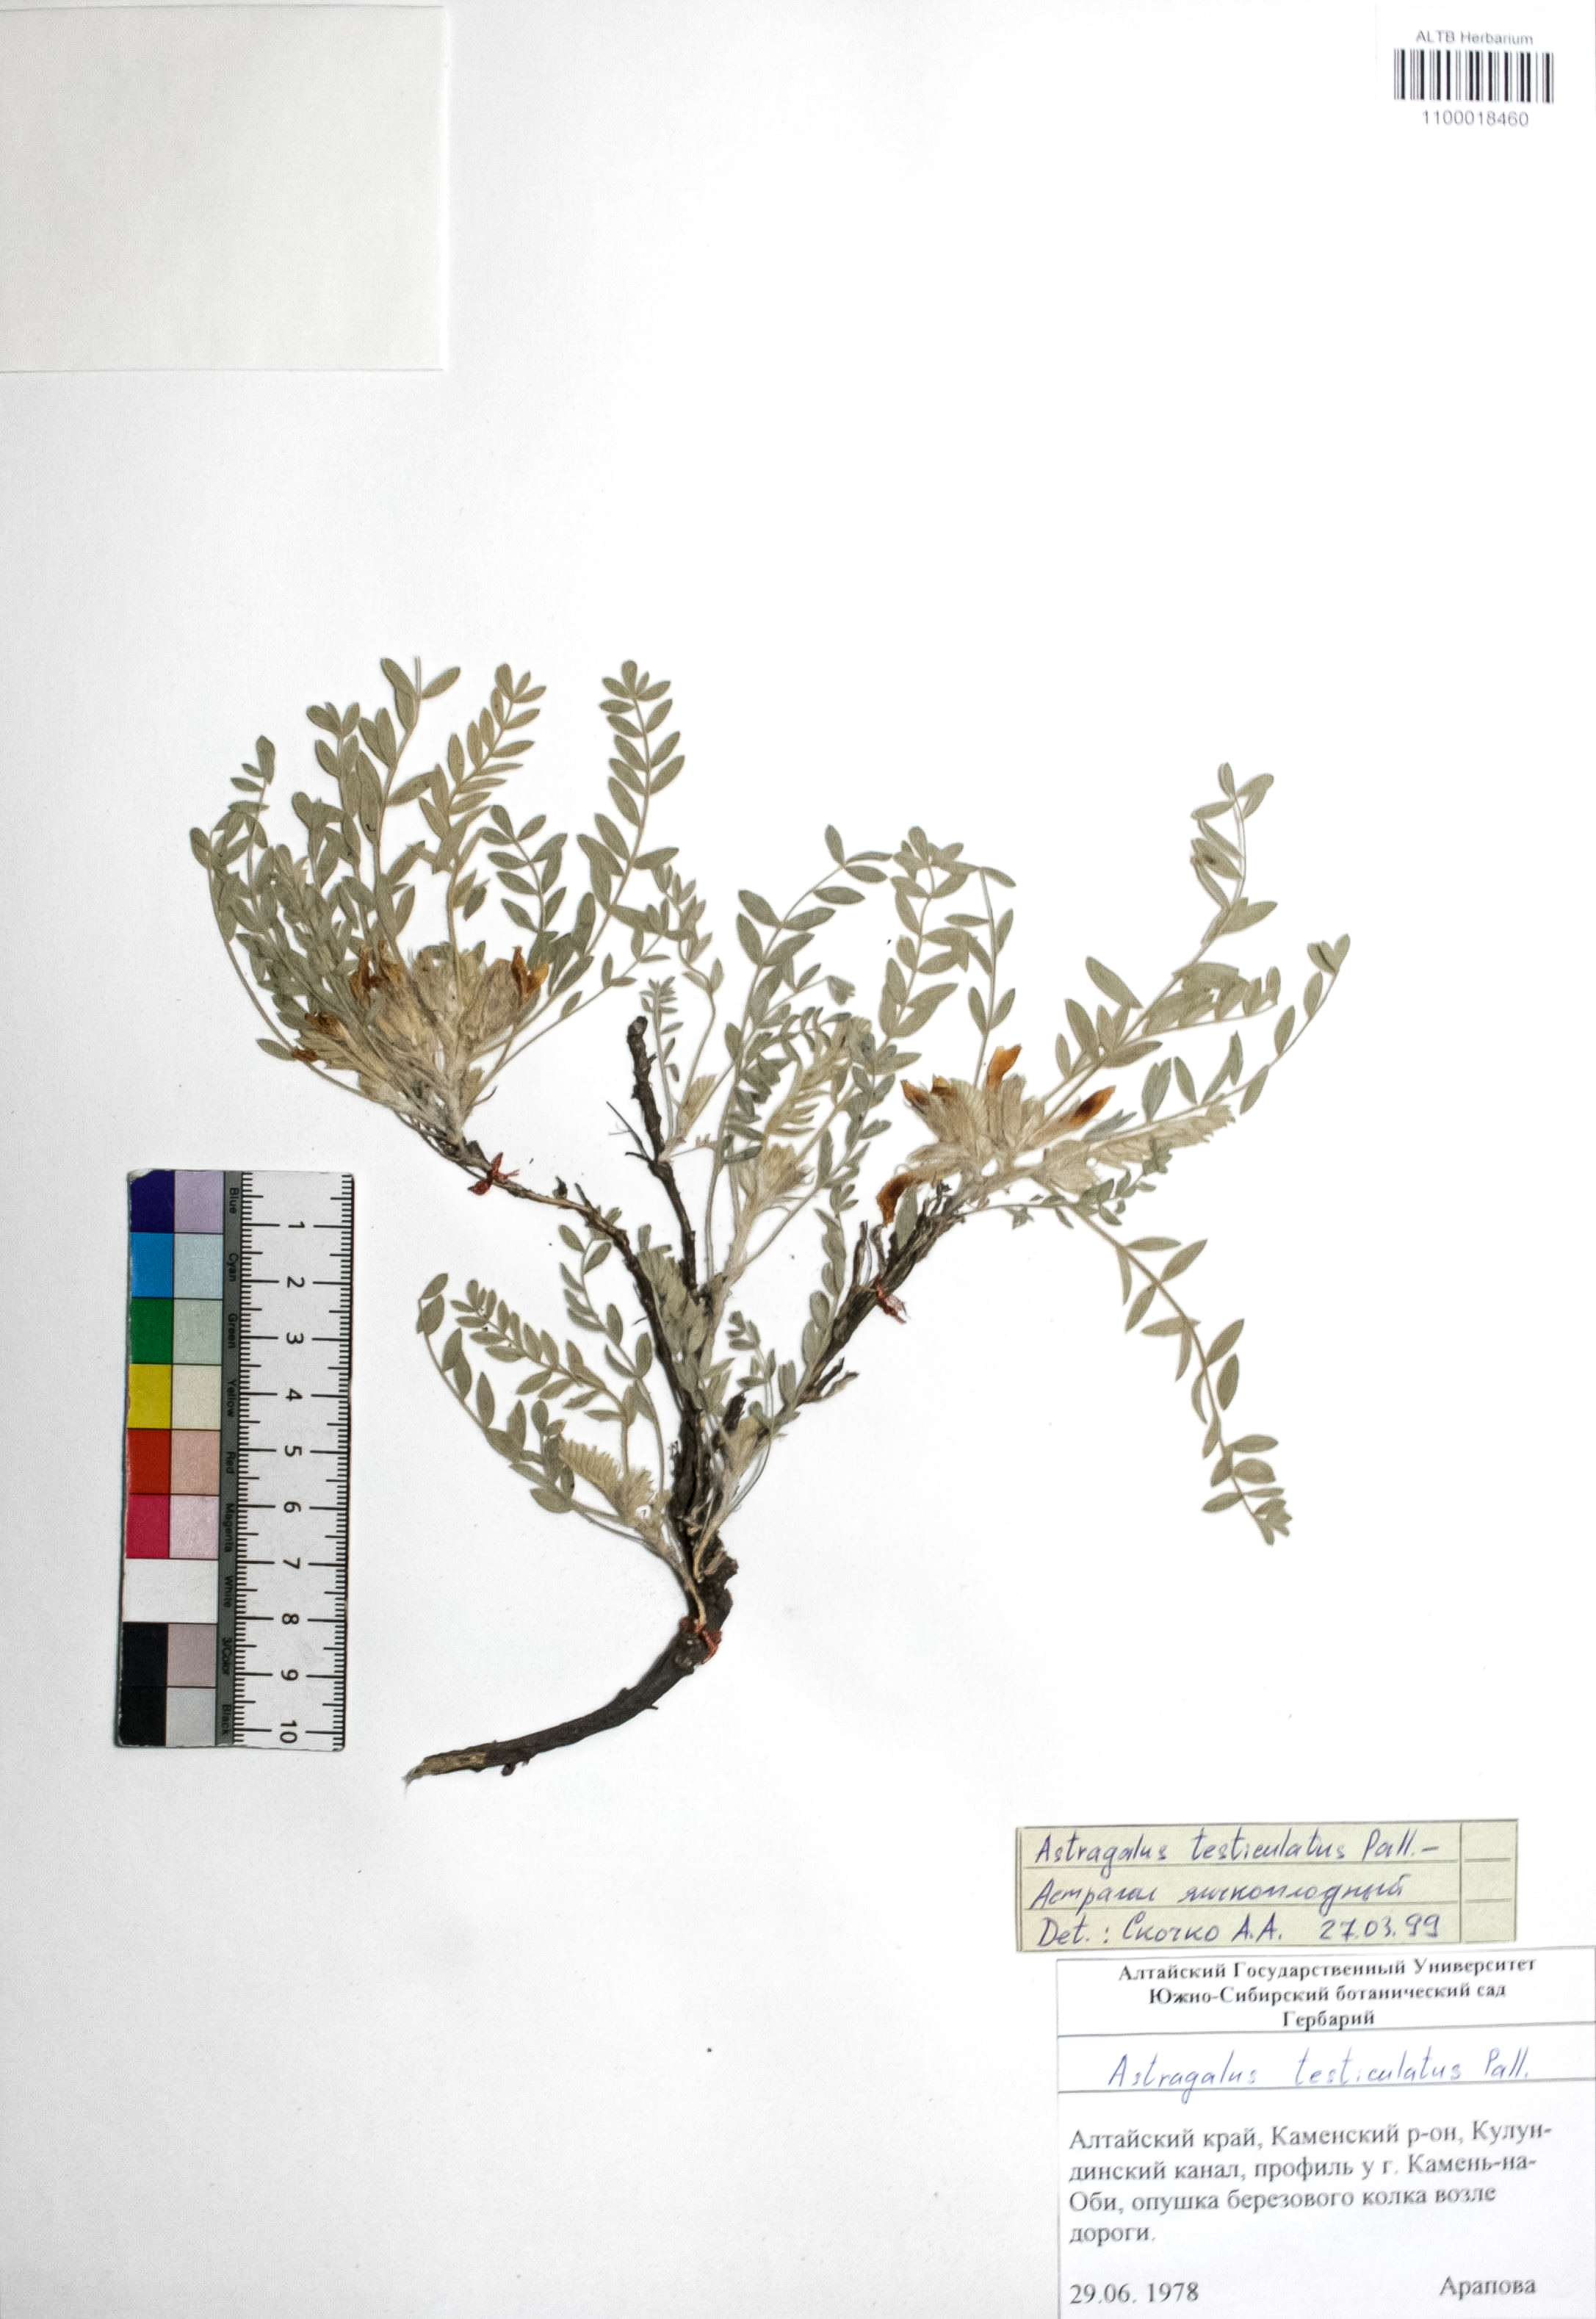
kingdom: Plantae
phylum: Tracheophyta
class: Magnoliopsida
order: Fabales
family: Fabaceae
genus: Astragalus
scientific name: Astragalus testiculatus
